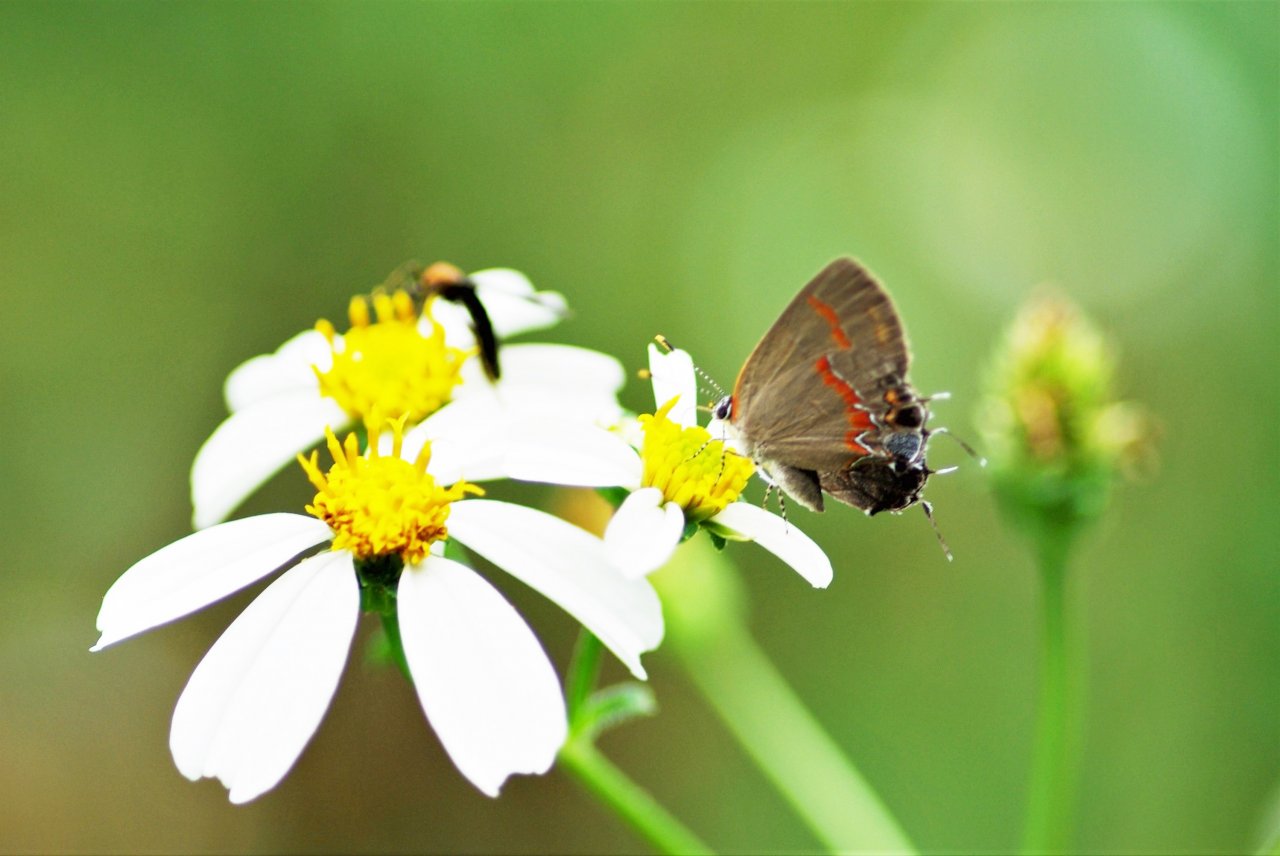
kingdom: Animalia
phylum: Arthropoda
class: Insecta
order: Lepidoptera
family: Lycaenidae
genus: Calycopis
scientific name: Calycopis cecrops
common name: Red-banded Hairstreak
